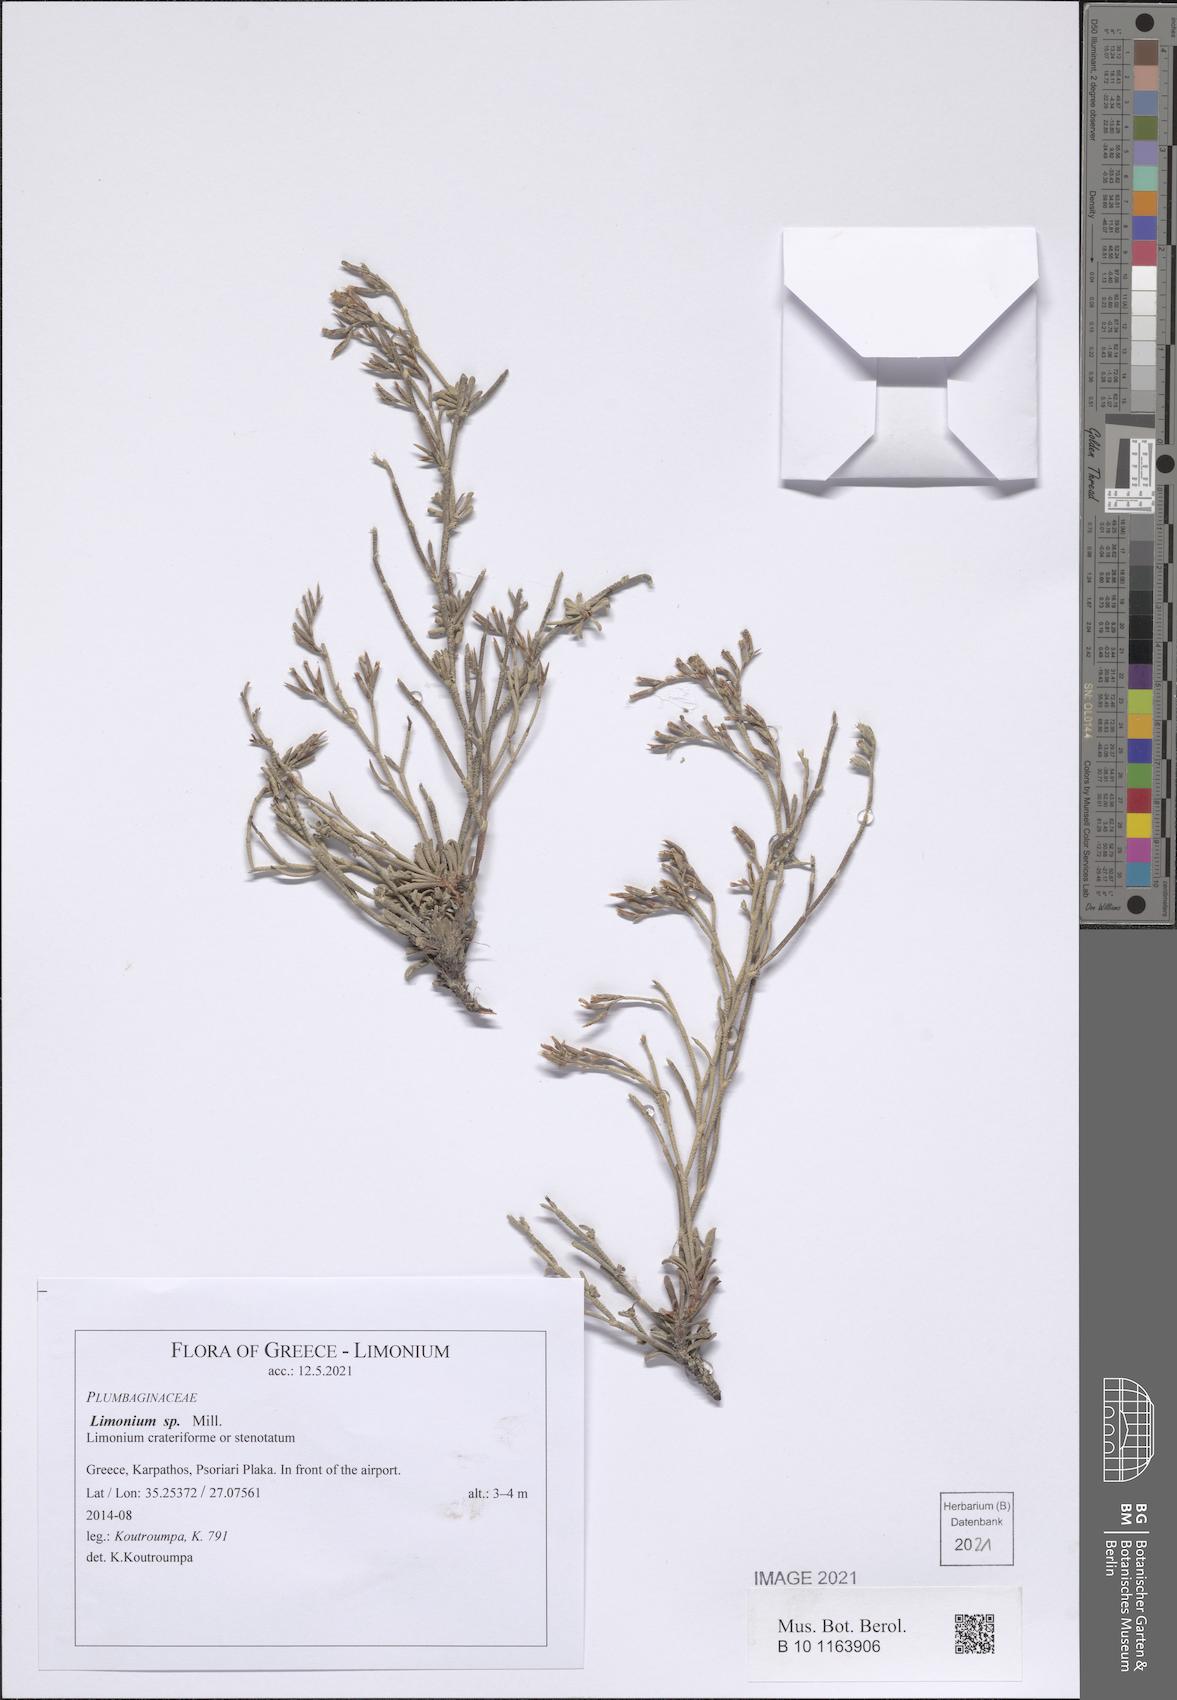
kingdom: Plantae
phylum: Tracheophyta
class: Magnoliopsida
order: Caryophyllales
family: Plumbaginaceae
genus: Limonium
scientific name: Limonium
